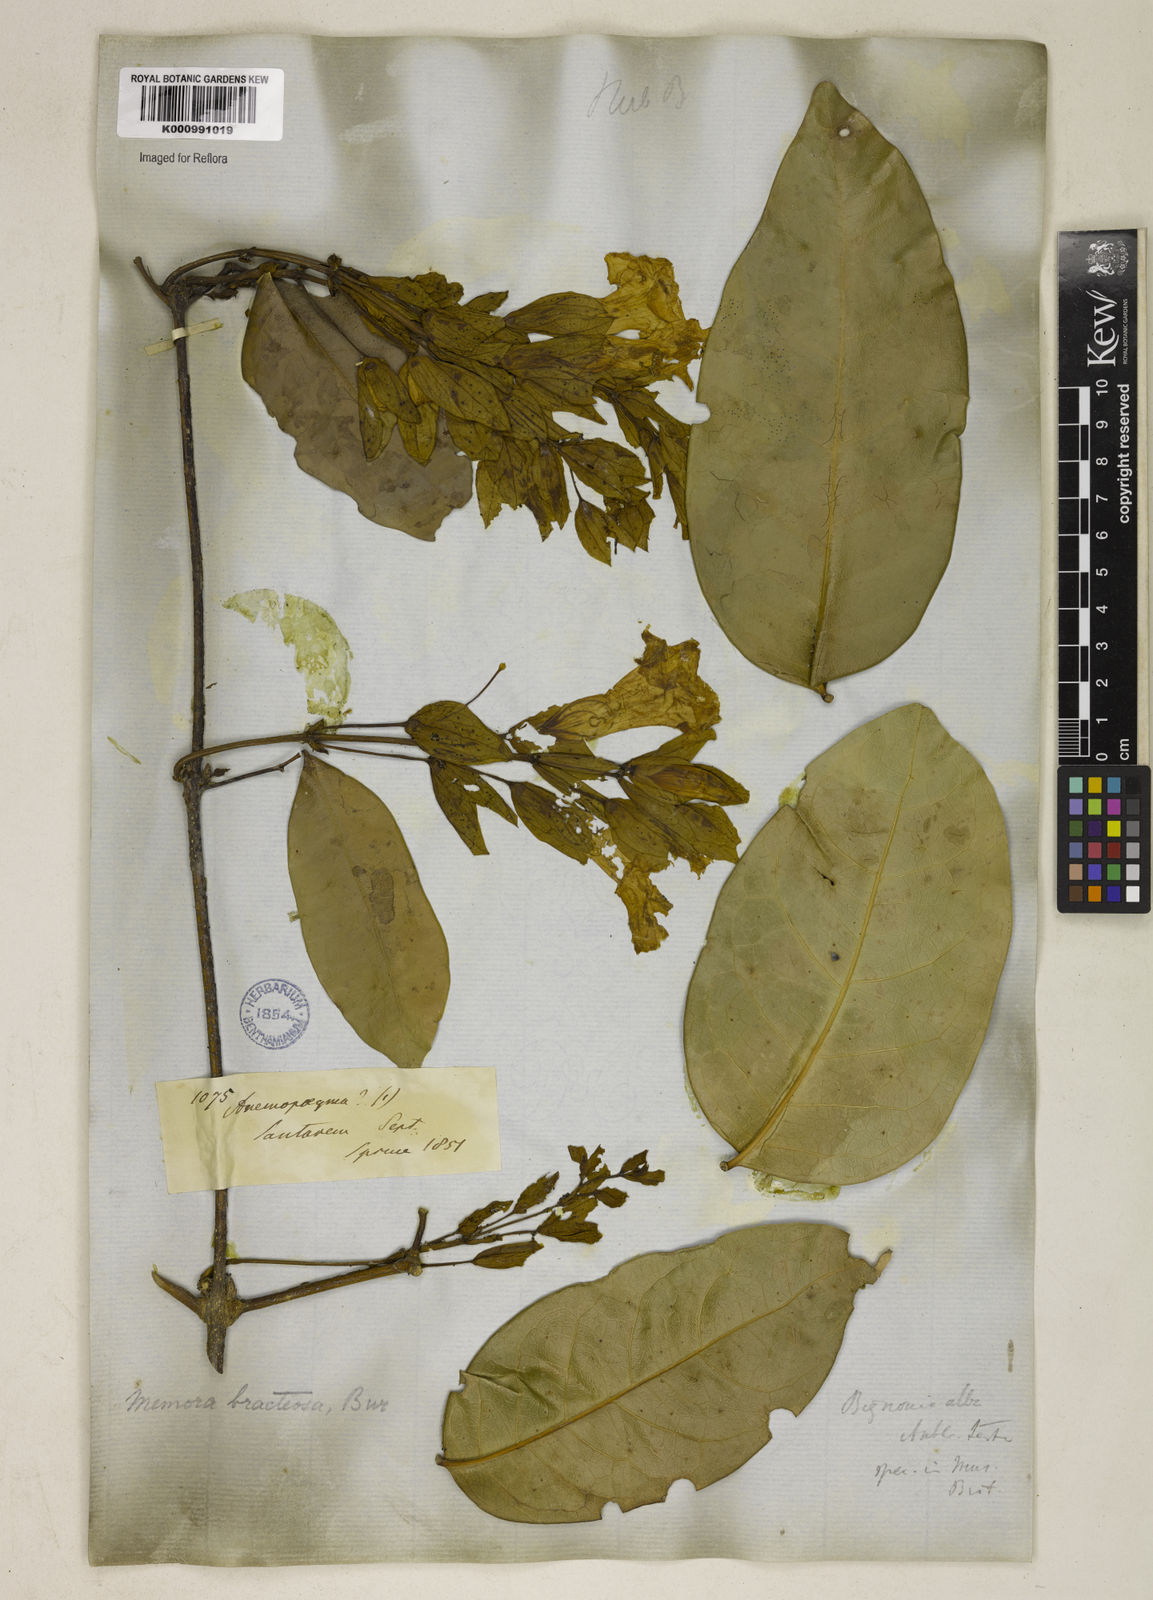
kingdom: Plantae
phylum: Tracheophyta
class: Magnoliopsida
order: Lamiales
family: Bignoniaceae
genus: Adenocalymma
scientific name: Adenocalymma
